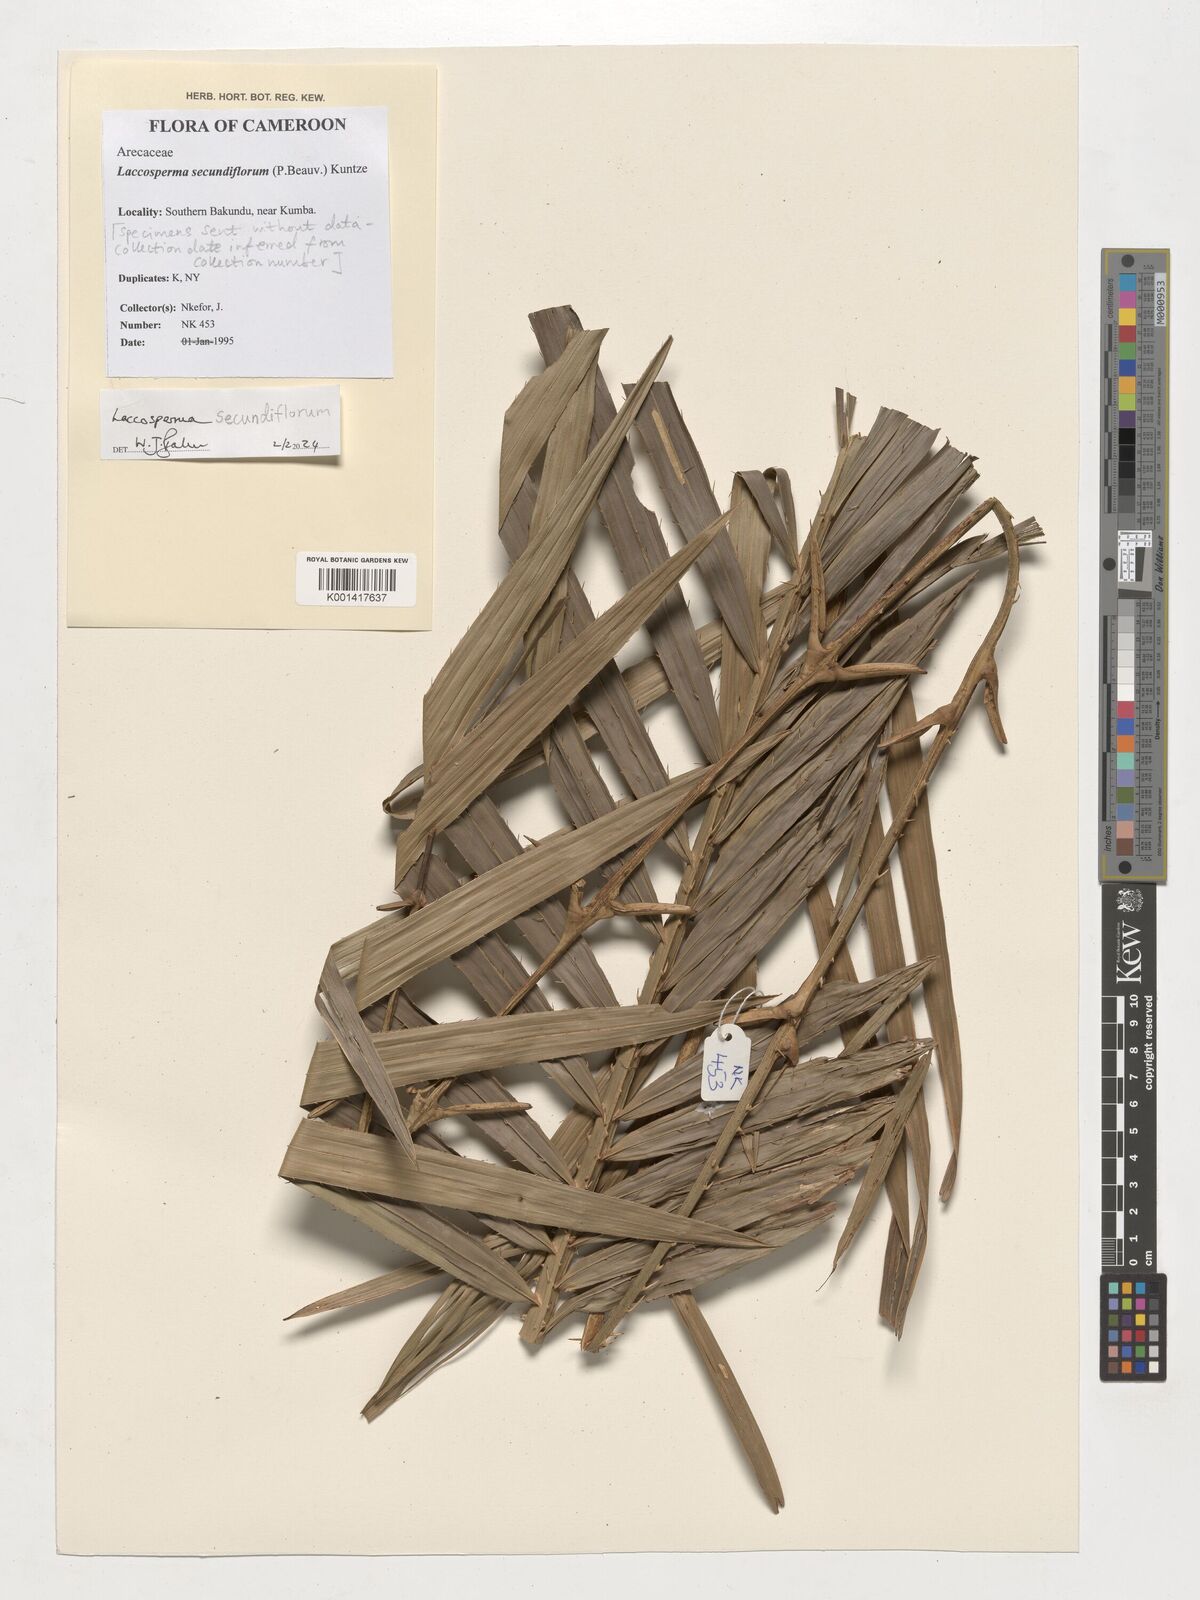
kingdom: Plantae
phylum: Tracheophyta
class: Liliopsida
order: Arecales
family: Arecaceae
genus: Laccosperma
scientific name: Laccosperma secundiflorum
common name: Rattan
